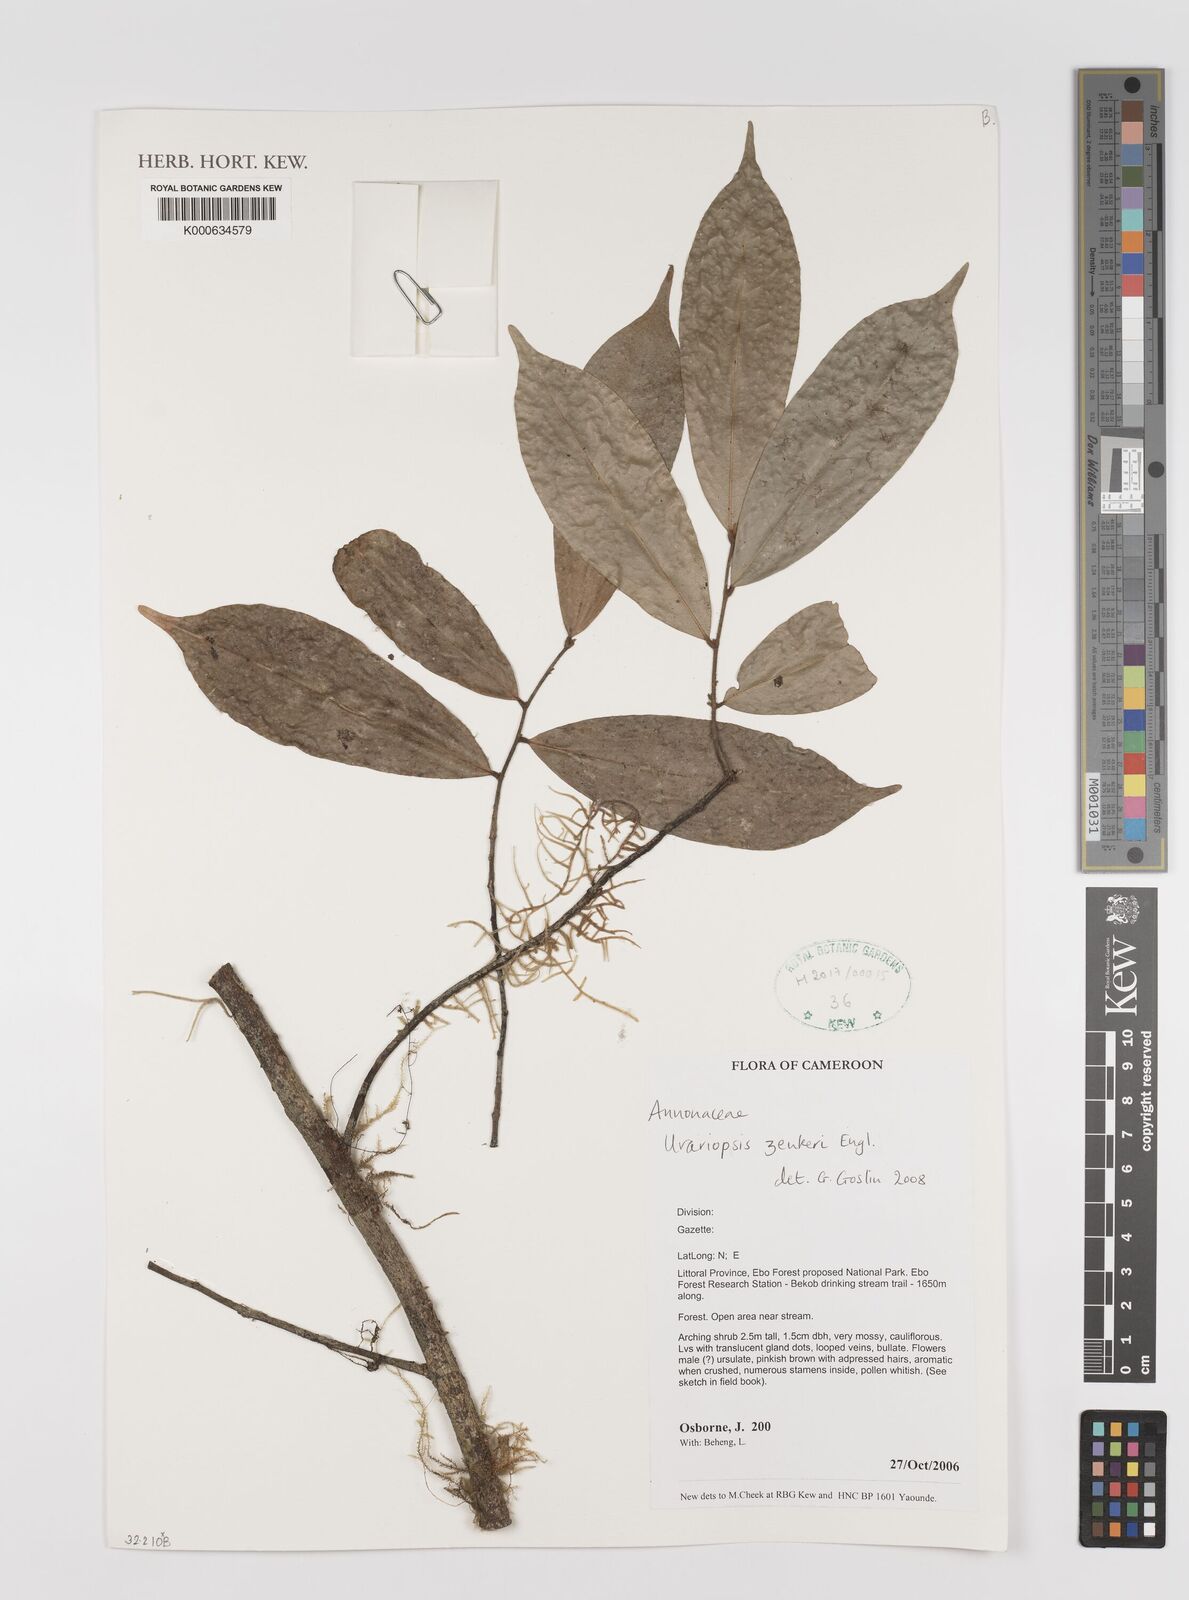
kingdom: Plantae
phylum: Tracheophyta
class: Magnoliopsida
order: Magnoliales
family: Annonaceae
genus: Uvariopsis
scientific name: Uvariopsis zenkeri
